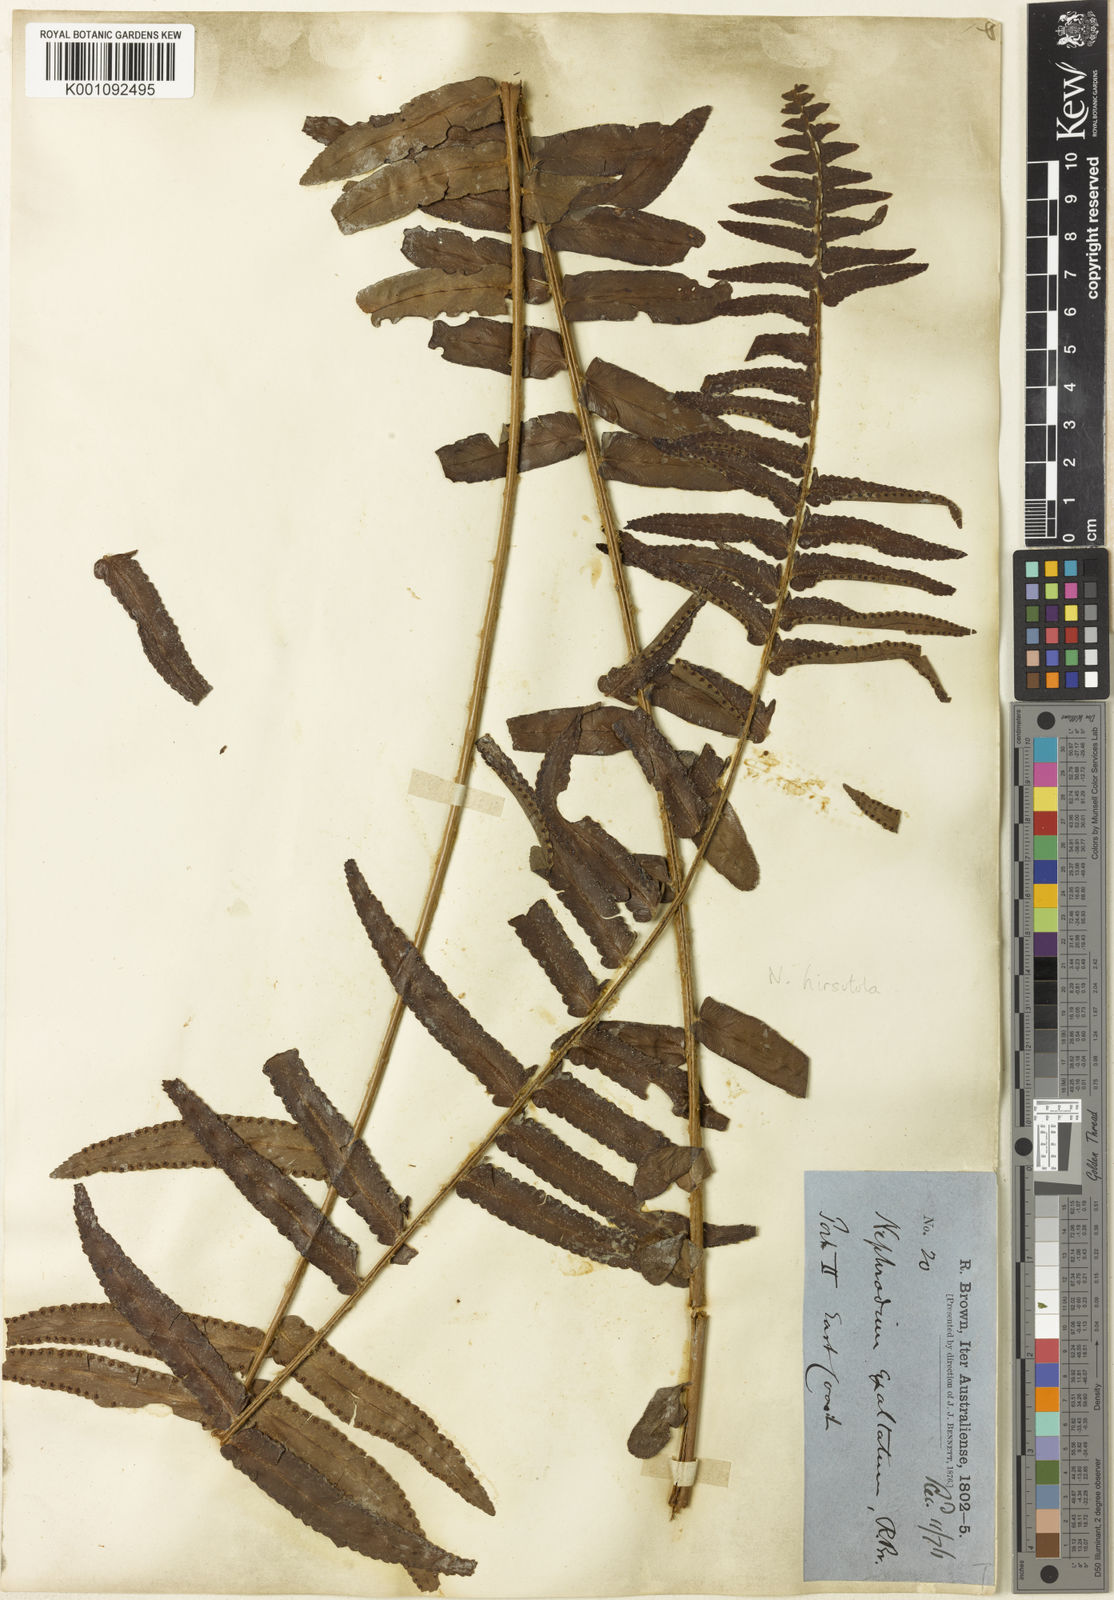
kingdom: Plantae
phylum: Tracheophyta
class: Polypodiopsida
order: Polypodiales
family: Nephrolepidaceae
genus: Nephrolepis
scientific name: Nephrolepis hirsutula
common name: Asian sword fern
